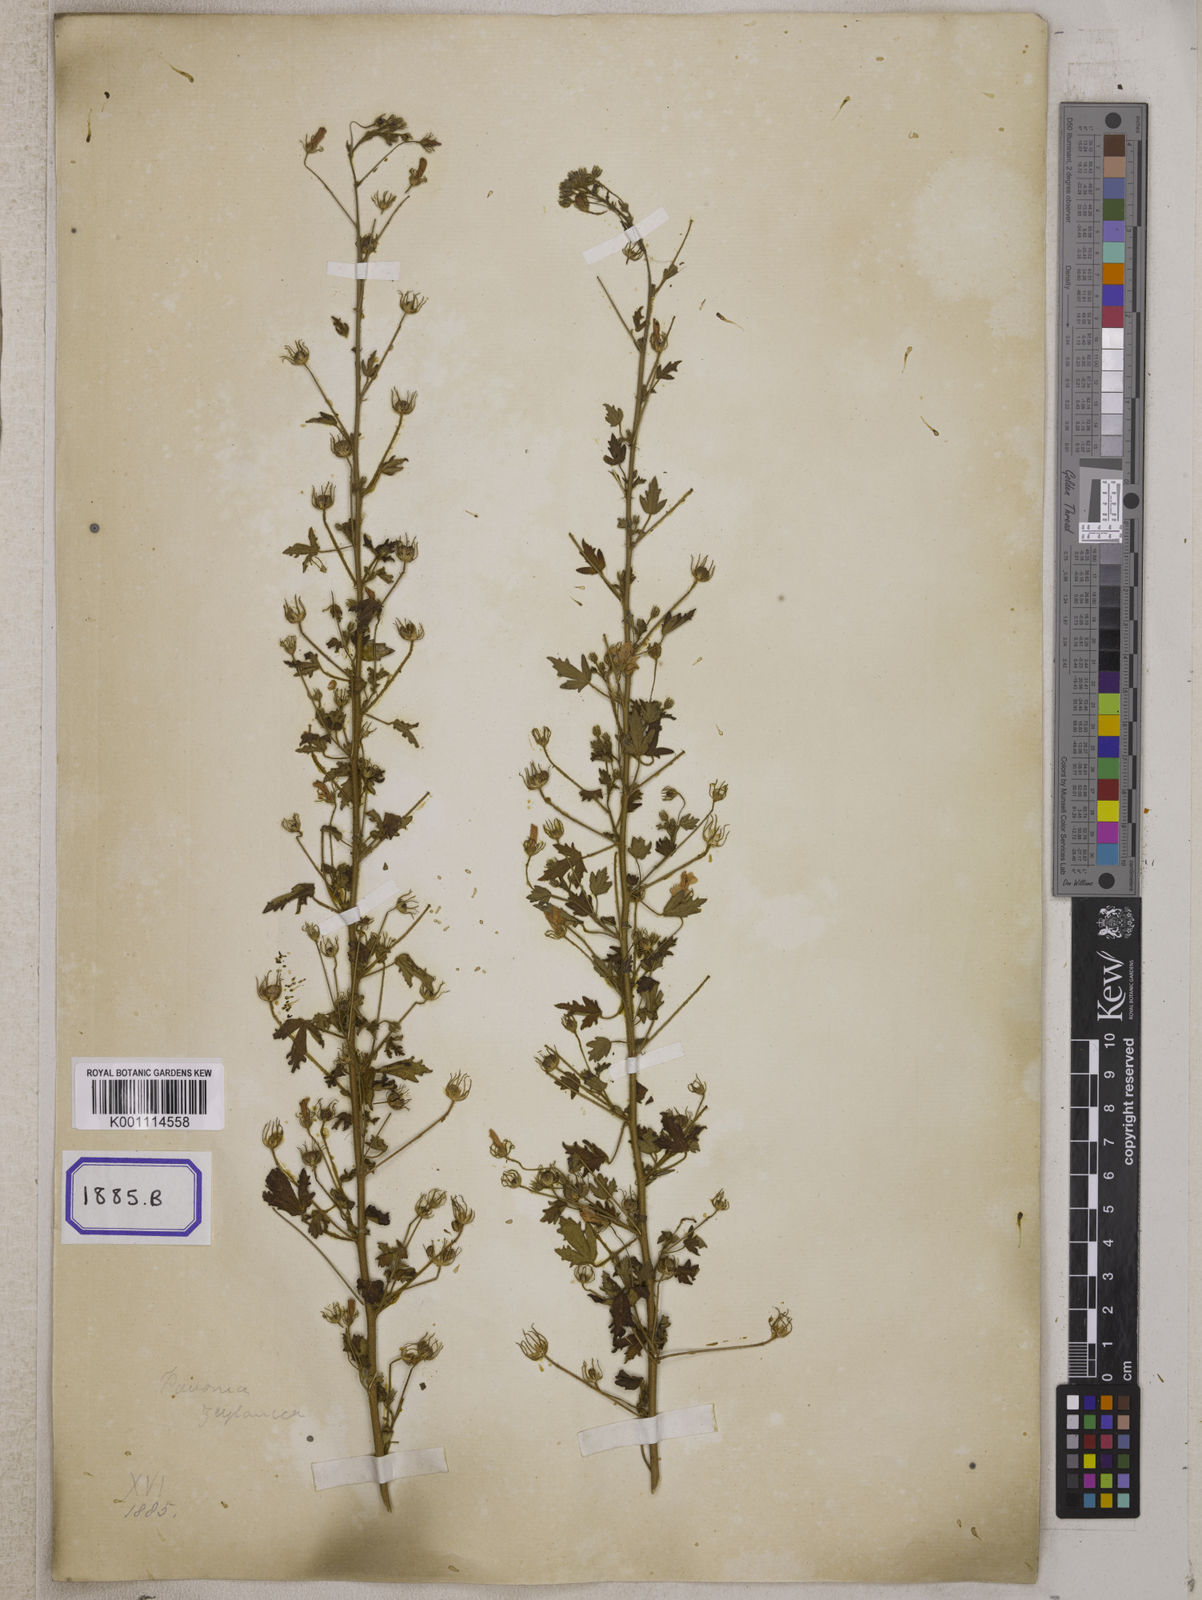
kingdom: Plantae
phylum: Tracheophyta
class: Magnoliopsida
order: Malvales
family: Malvaceae
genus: Pavonia
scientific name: Pavonia
